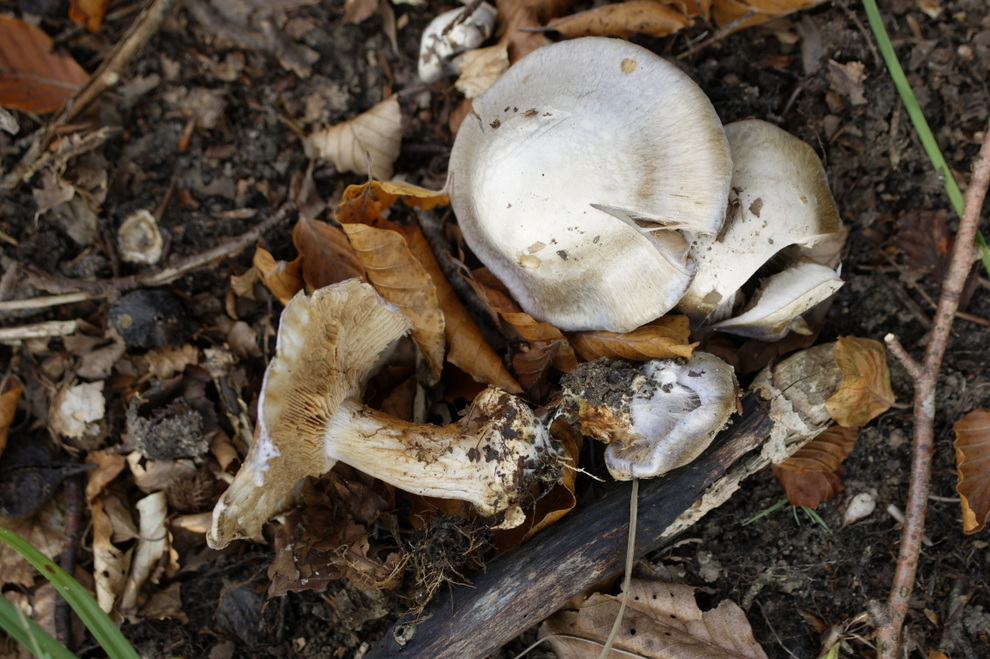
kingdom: Fungi
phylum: Basidiomycota
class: Agaricomycetes
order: Agaricales
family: Cortinariaceae
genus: Cortinarius
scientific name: Cortinarius caerulescens
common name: blåkødet slørhat
